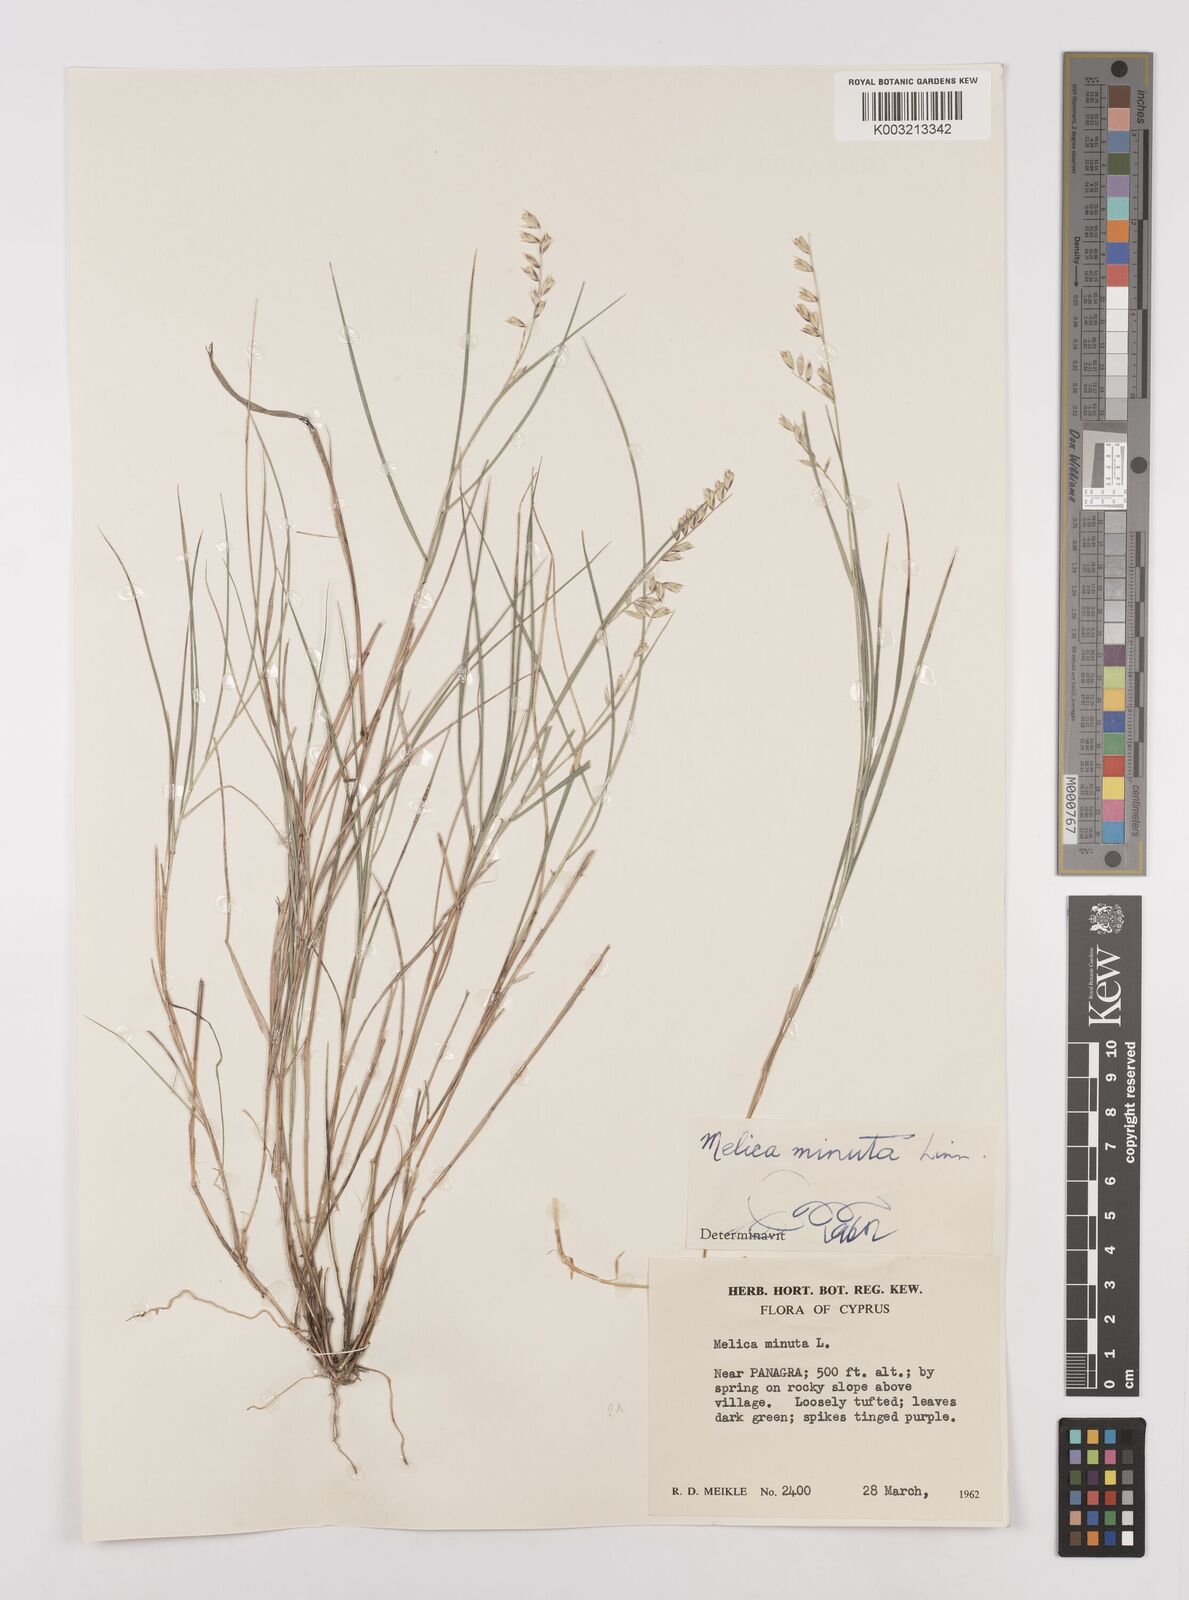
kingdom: Plantae
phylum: Tracheophyta
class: Liliopsida
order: Poales
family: Poaceae
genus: Melica
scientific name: Melica minuta
